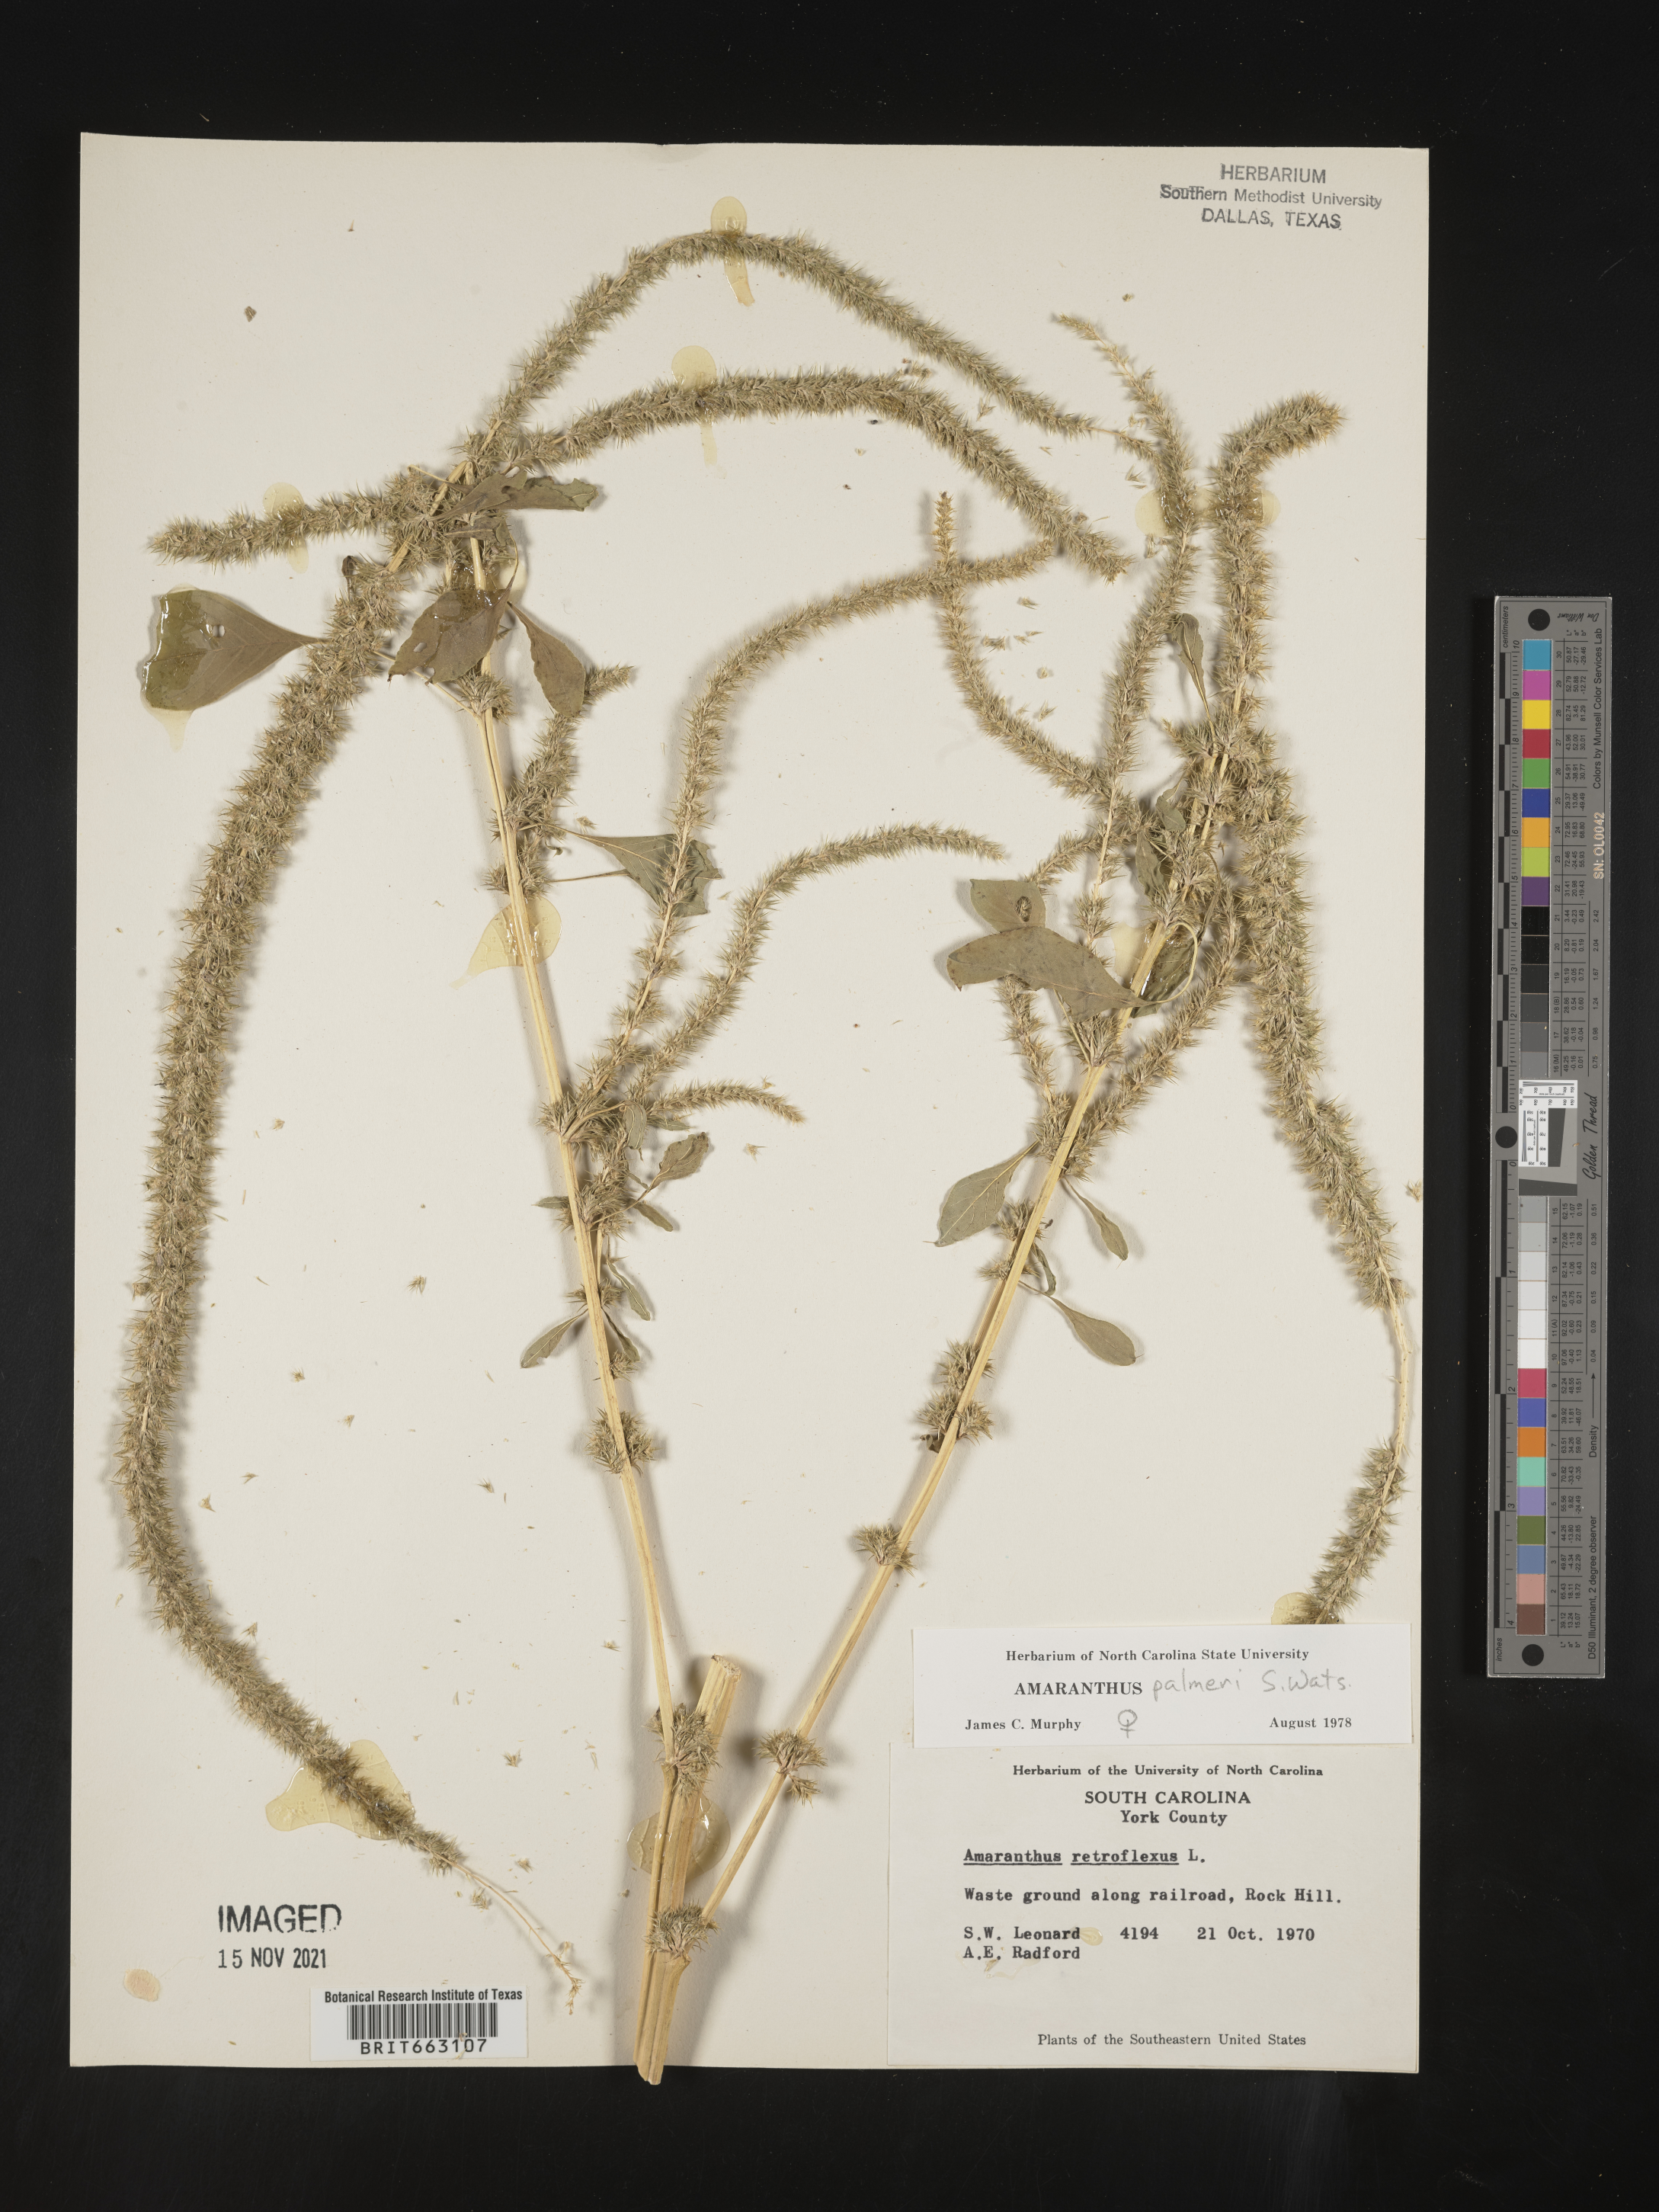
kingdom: Plantae
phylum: Tracheophyta
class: Magnoliopsida
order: Caryophyllales
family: Amaranthaceae
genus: Amaranthus
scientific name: Amaranthus palmeri
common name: Dioecious amaranth
